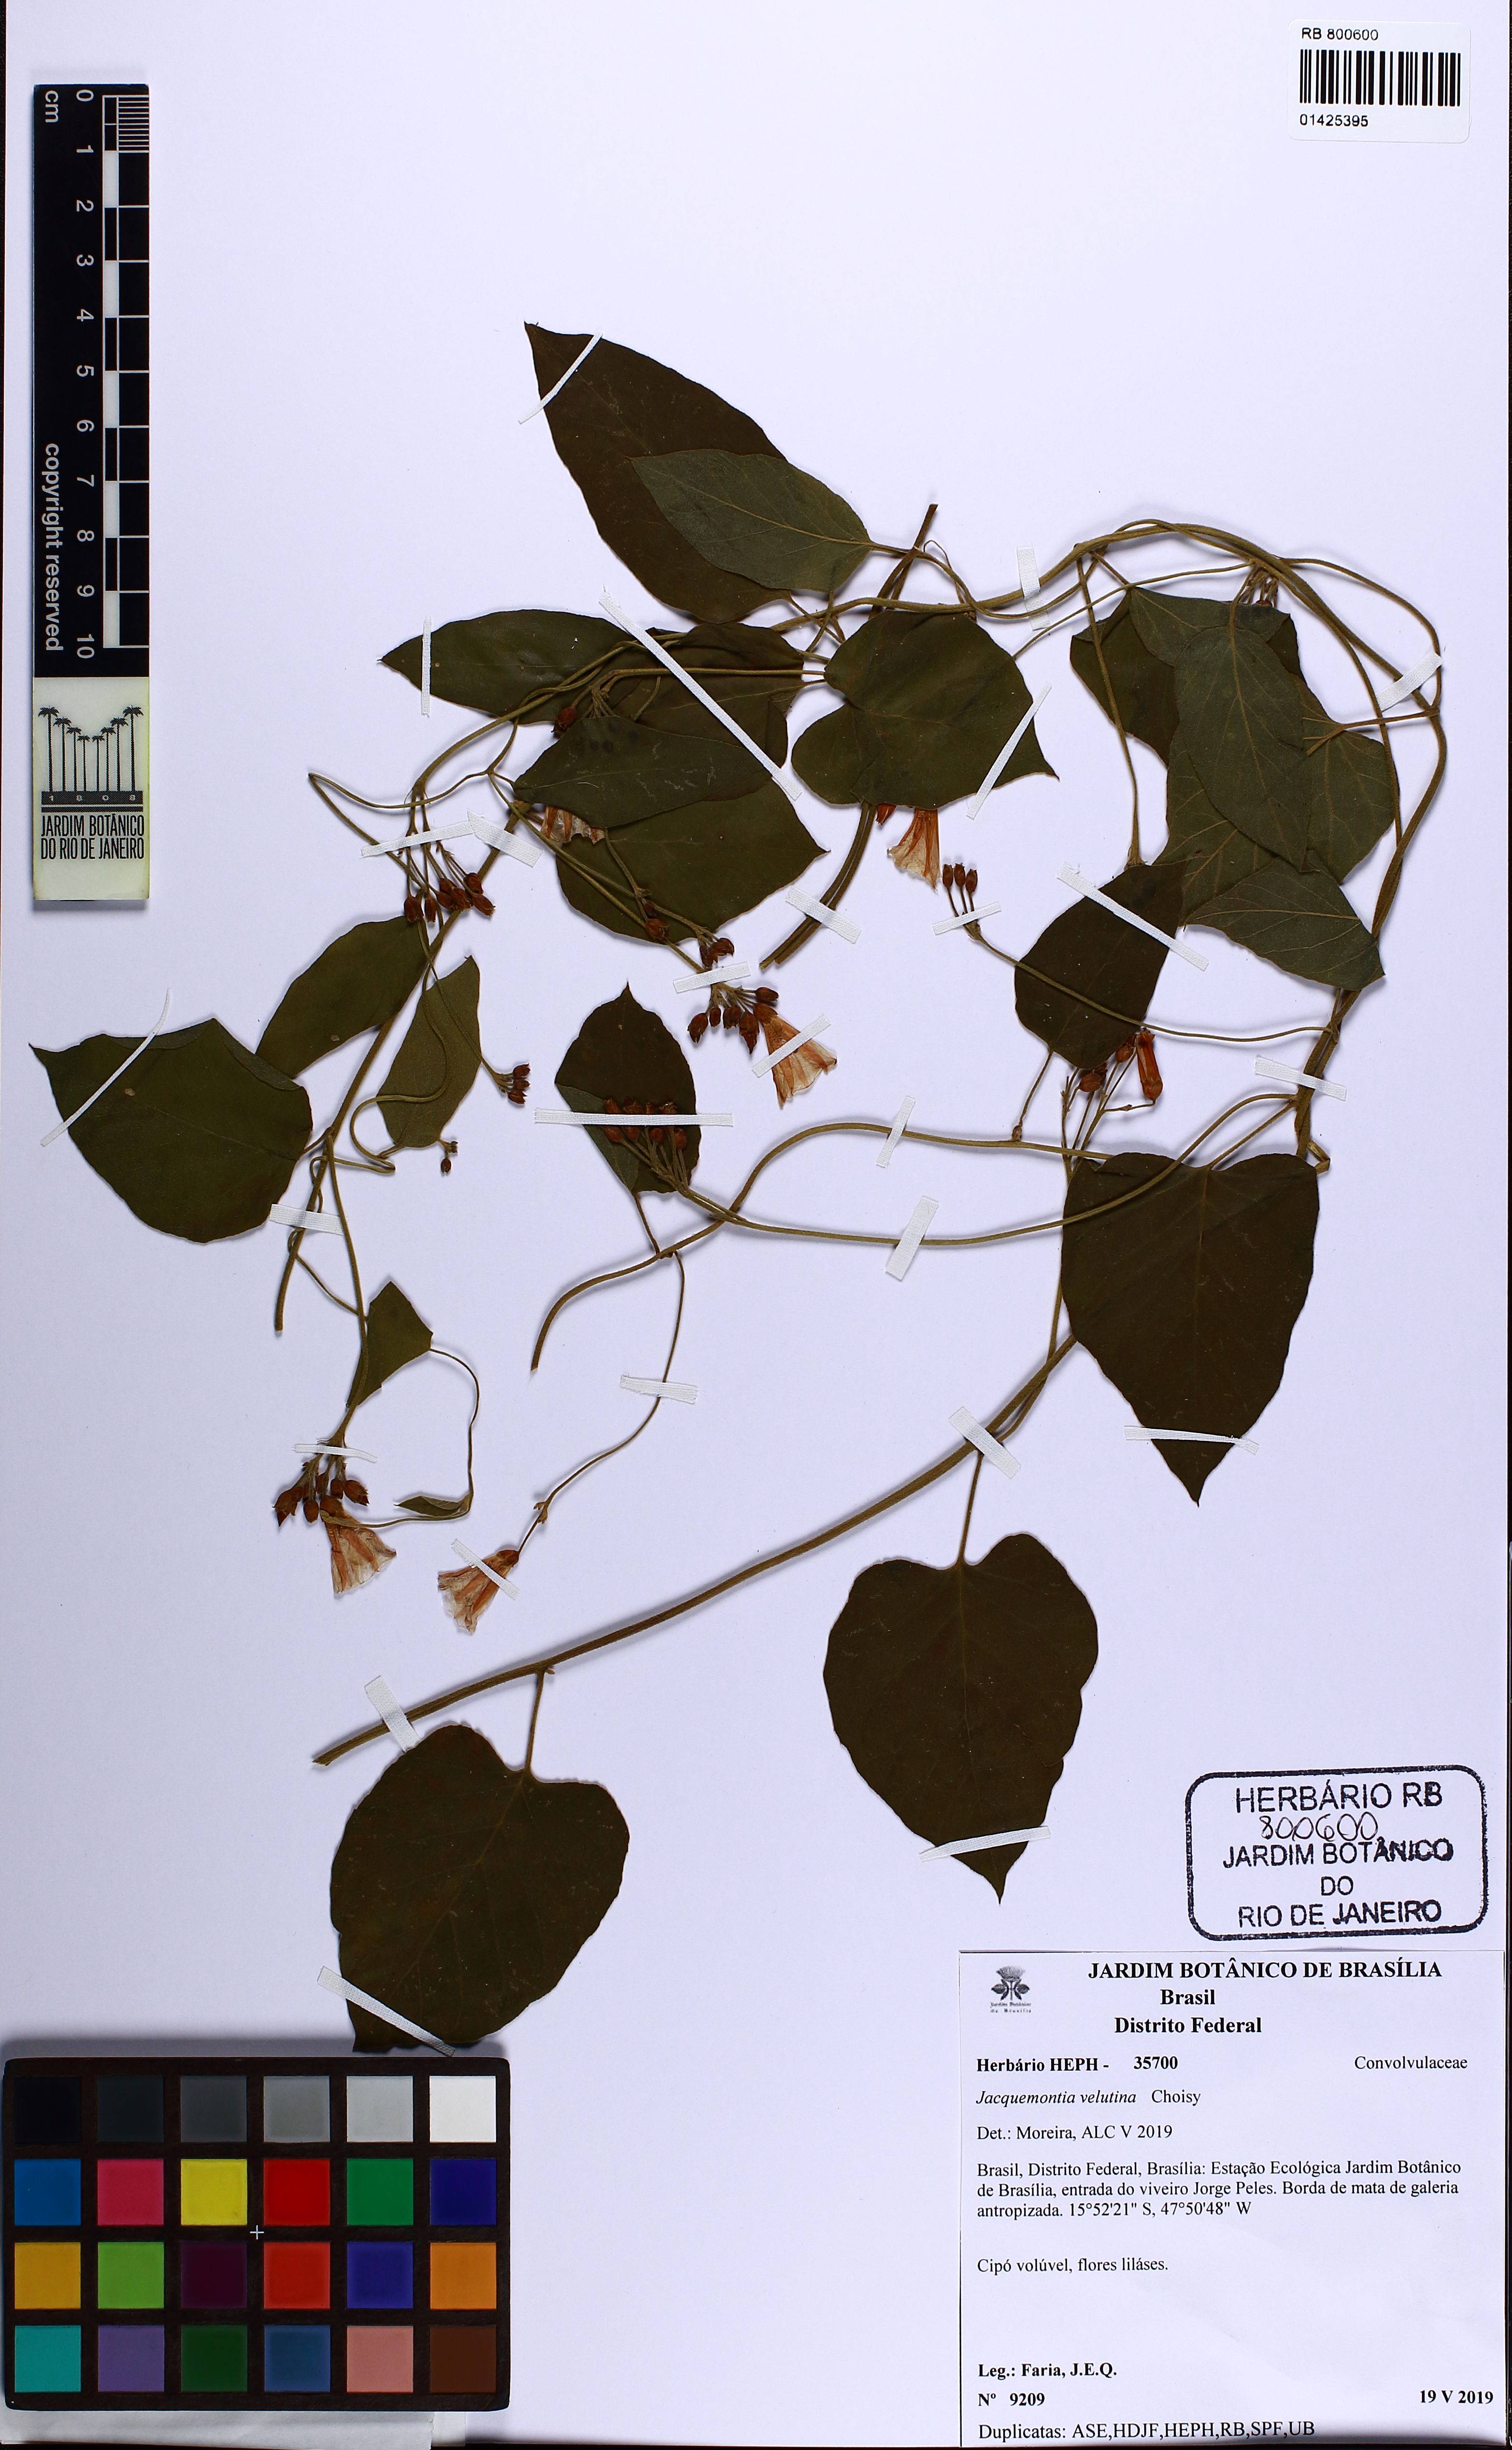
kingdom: Plantae
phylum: Tracheophyta
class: Magnoliopsida
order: Solanales
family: Convolvulaceae
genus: Jacquemontia
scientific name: Jacquemontia velutina
